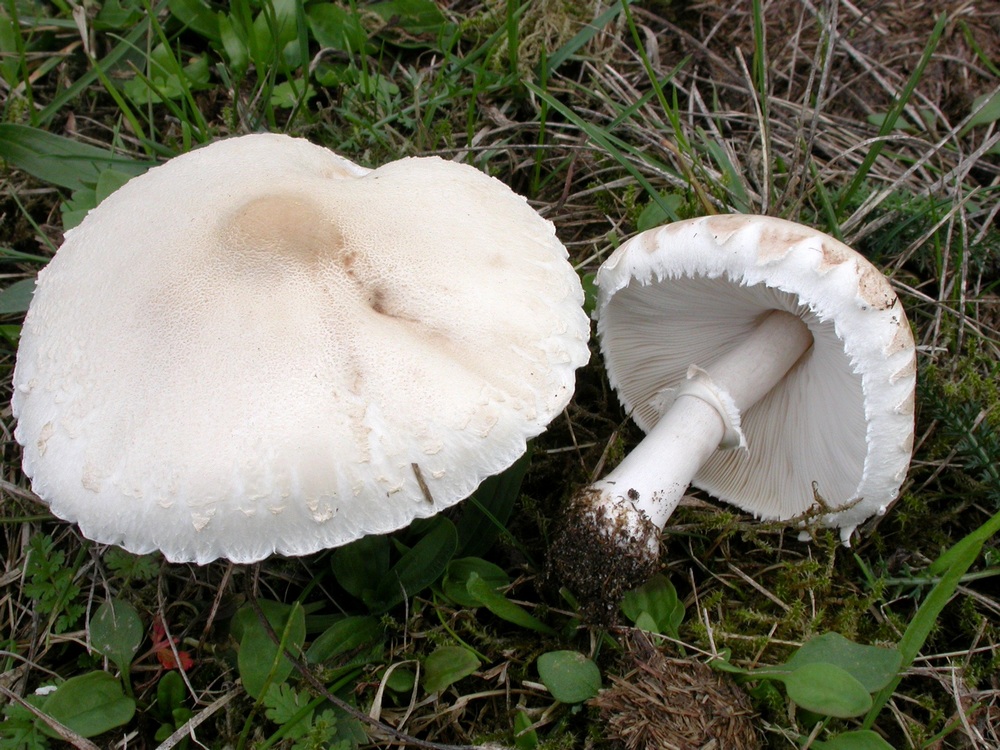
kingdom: Fungi
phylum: Basidiomycota
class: Agaricomycetes
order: Agaricales
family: Agaricaceae
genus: Macrolepiota
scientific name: Macrolepiota excoriata
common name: mark-kæmpeparasolhat
